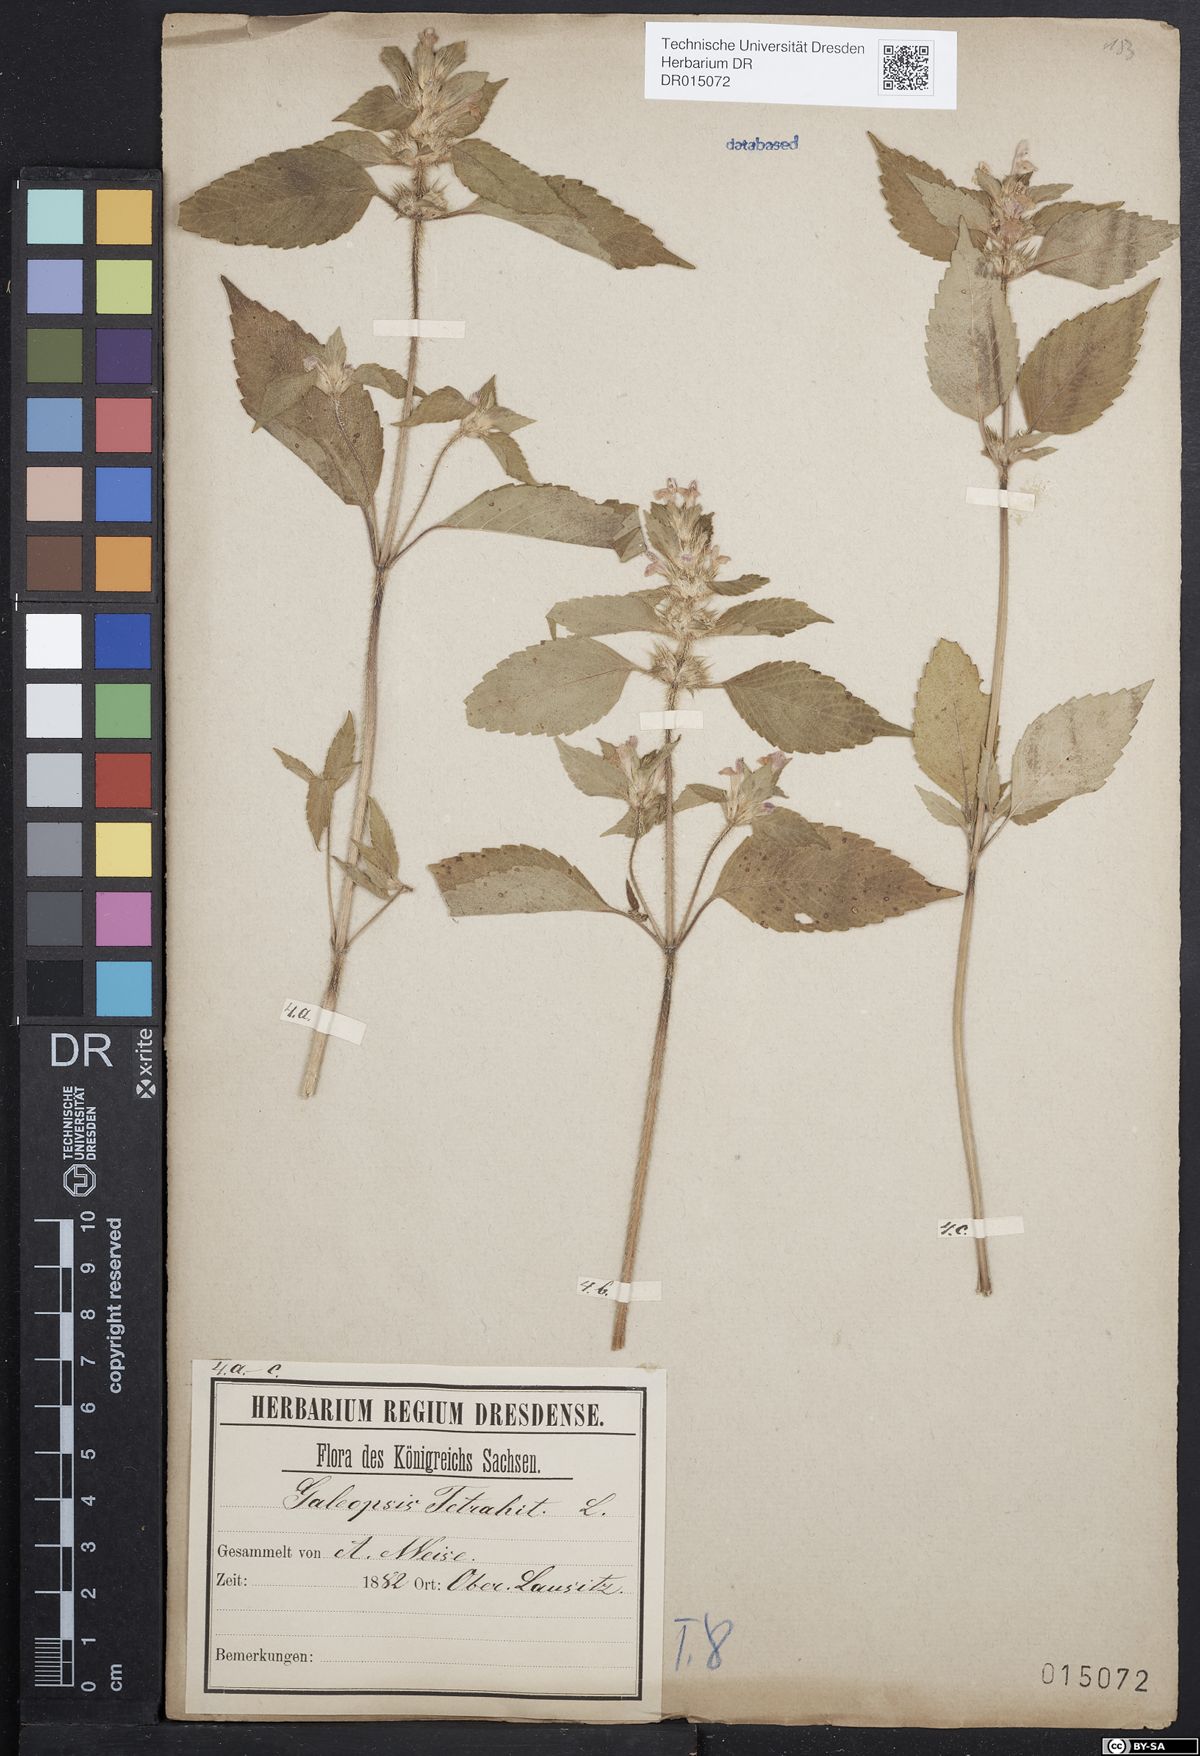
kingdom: Plantae
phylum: Tracheophyta
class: Magnoliopsida
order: Lamiales
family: Lamiaceae
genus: Galeopsis
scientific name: Galeopsis tetrahit
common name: Common hemp-nettle
